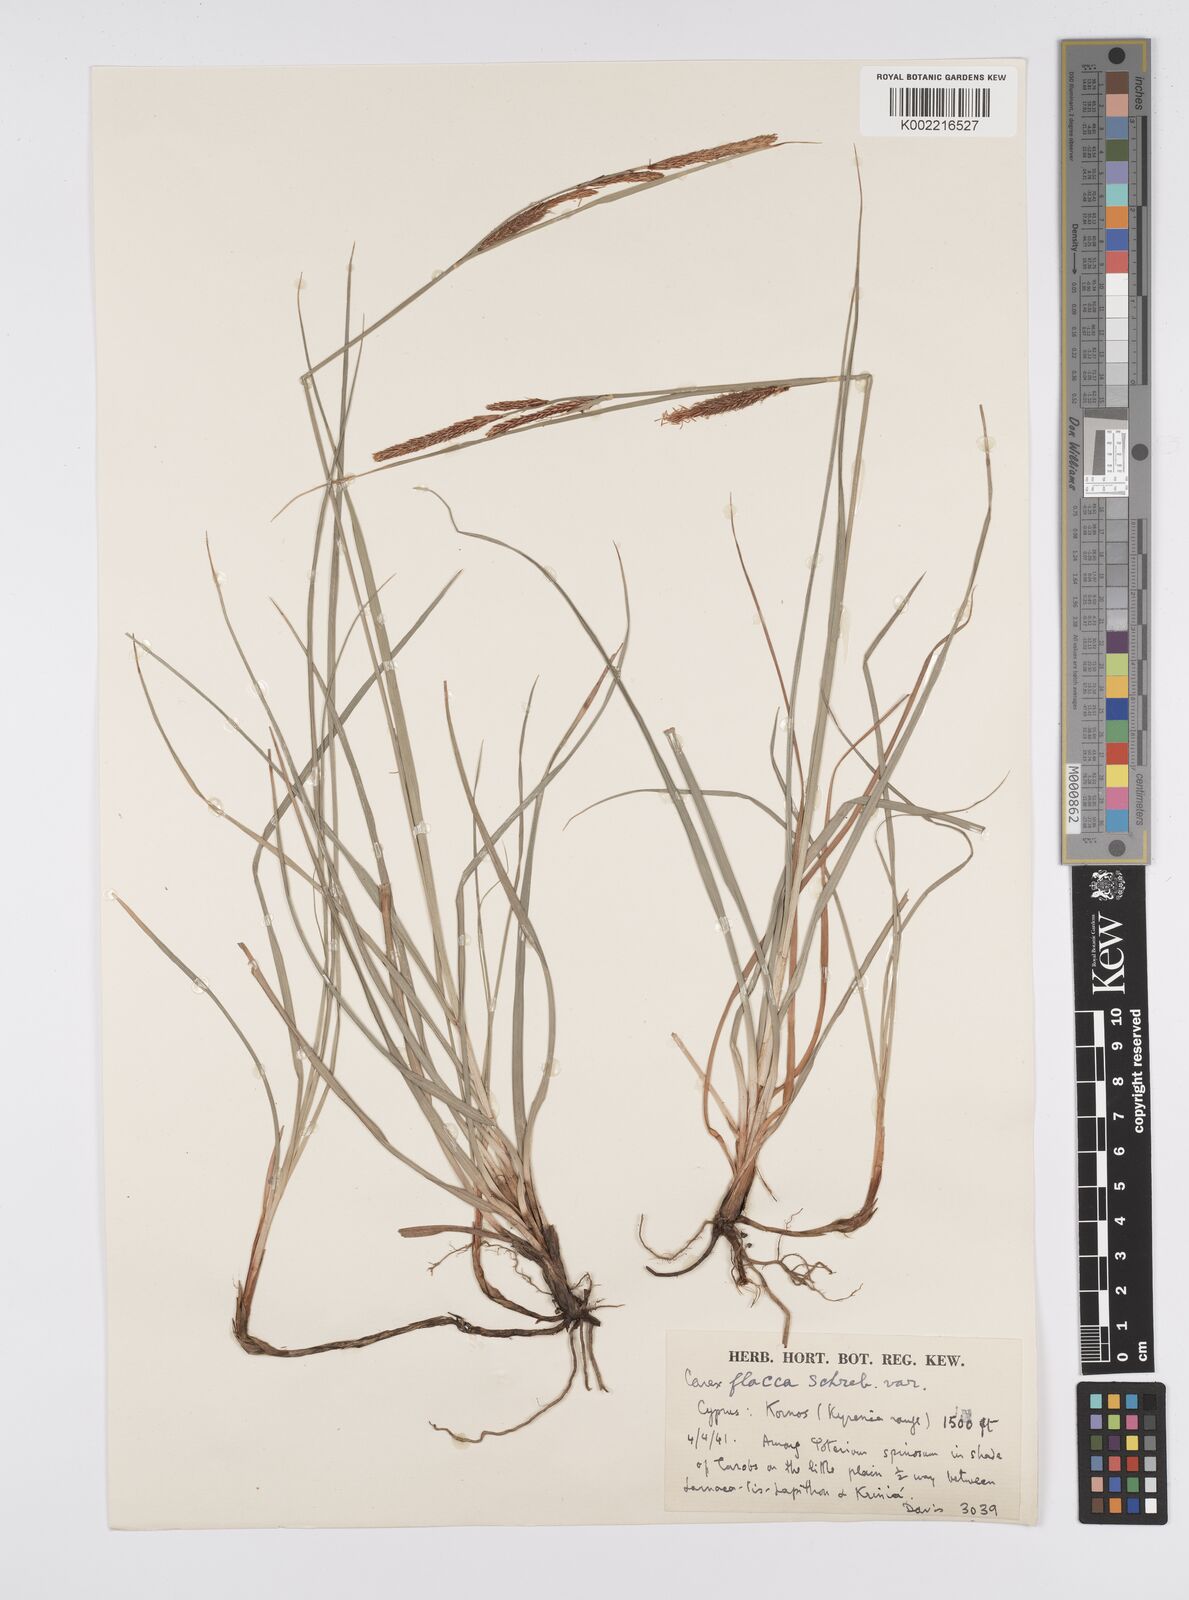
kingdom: Plantae
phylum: Tracheophyta
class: Liliopsida
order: Poales
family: Cyperaceae
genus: Carex
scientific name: Carex flacca
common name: Glaucous sedge
